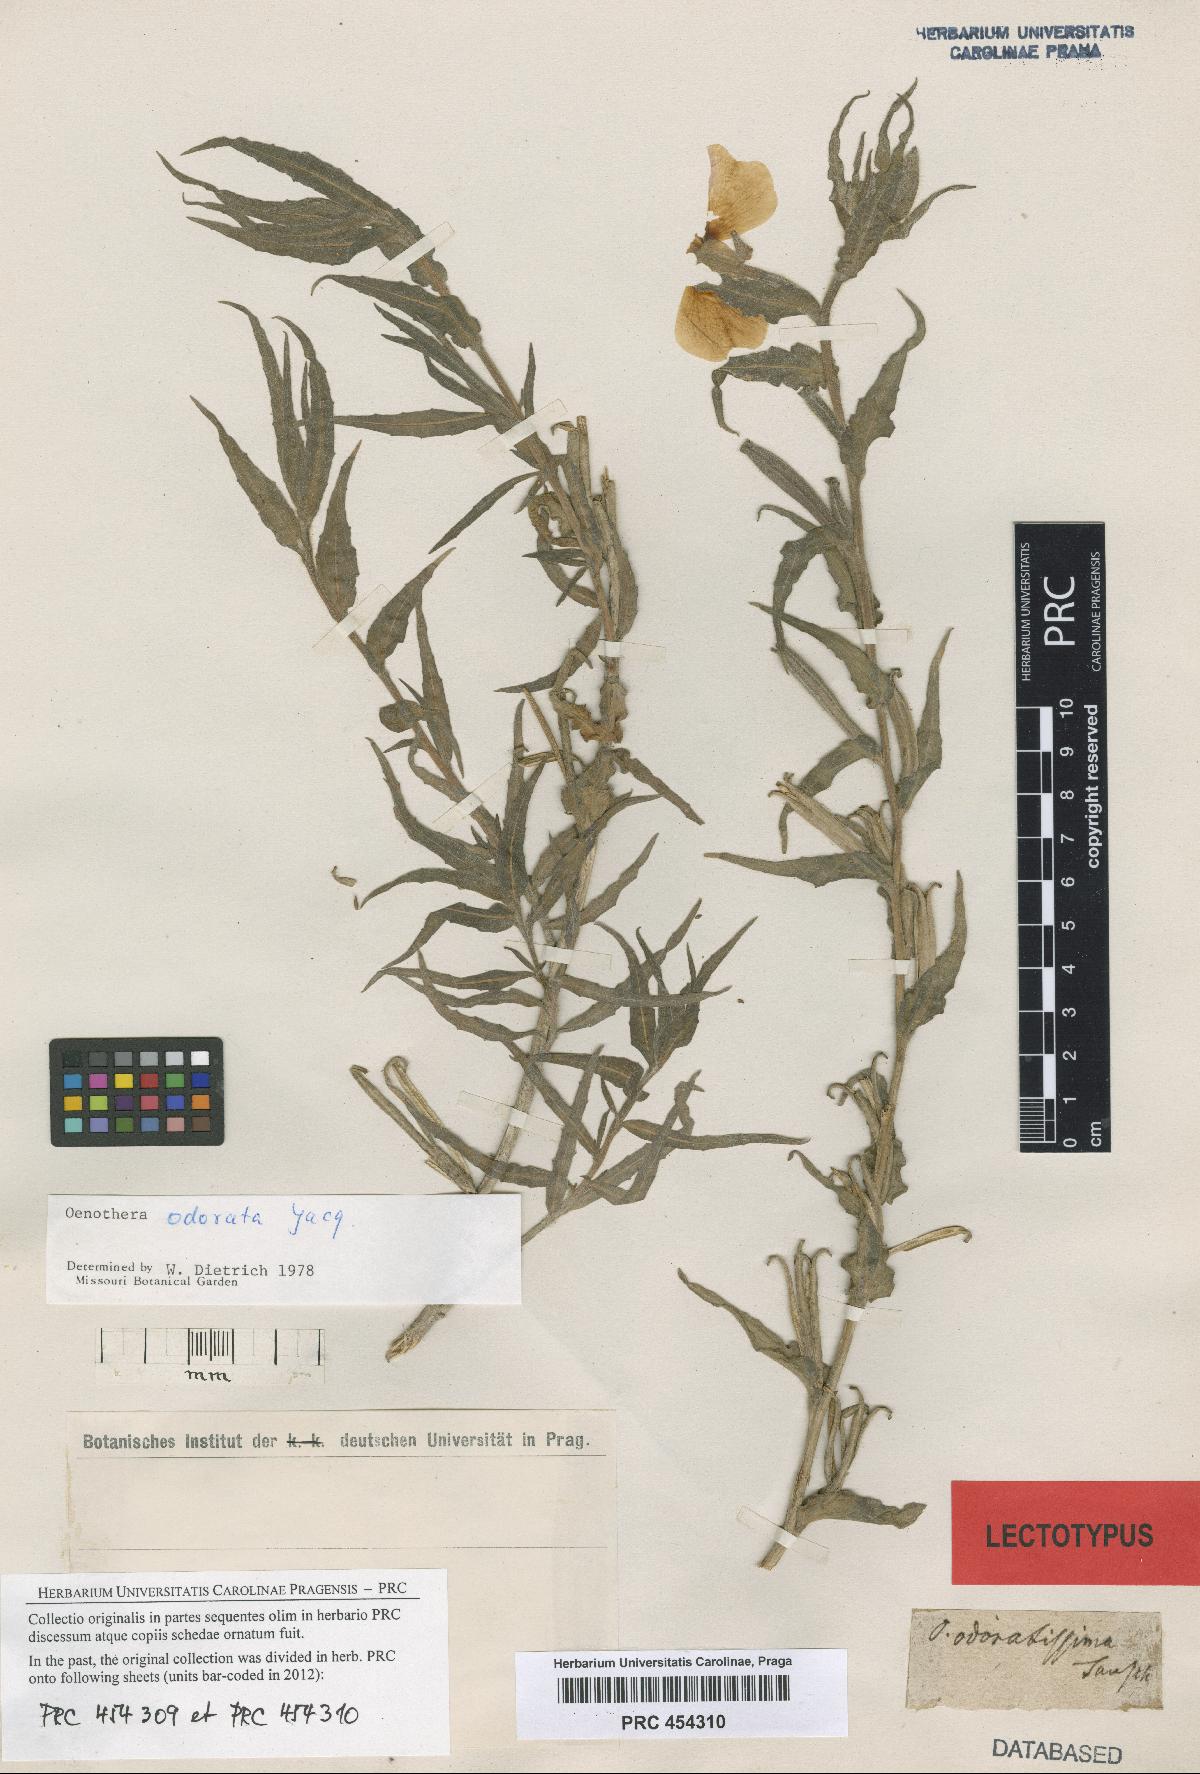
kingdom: Plantae
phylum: Tracheophyta
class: Magnoliopsida
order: Myrtales
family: Onagraceae
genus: Oenothera
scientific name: Oenothera odorata
